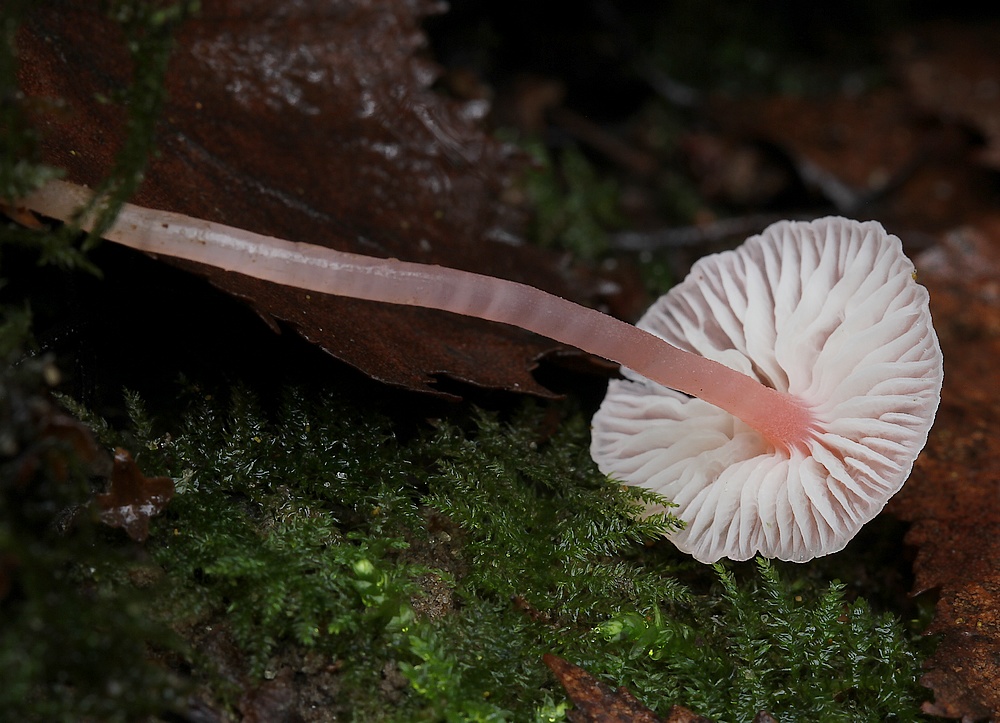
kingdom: Fungi
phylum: Basidiomycota
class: Agaricomycetes
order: Agaricales
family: Mycenaceae
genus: Mycena
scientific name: Mycena coccinea
